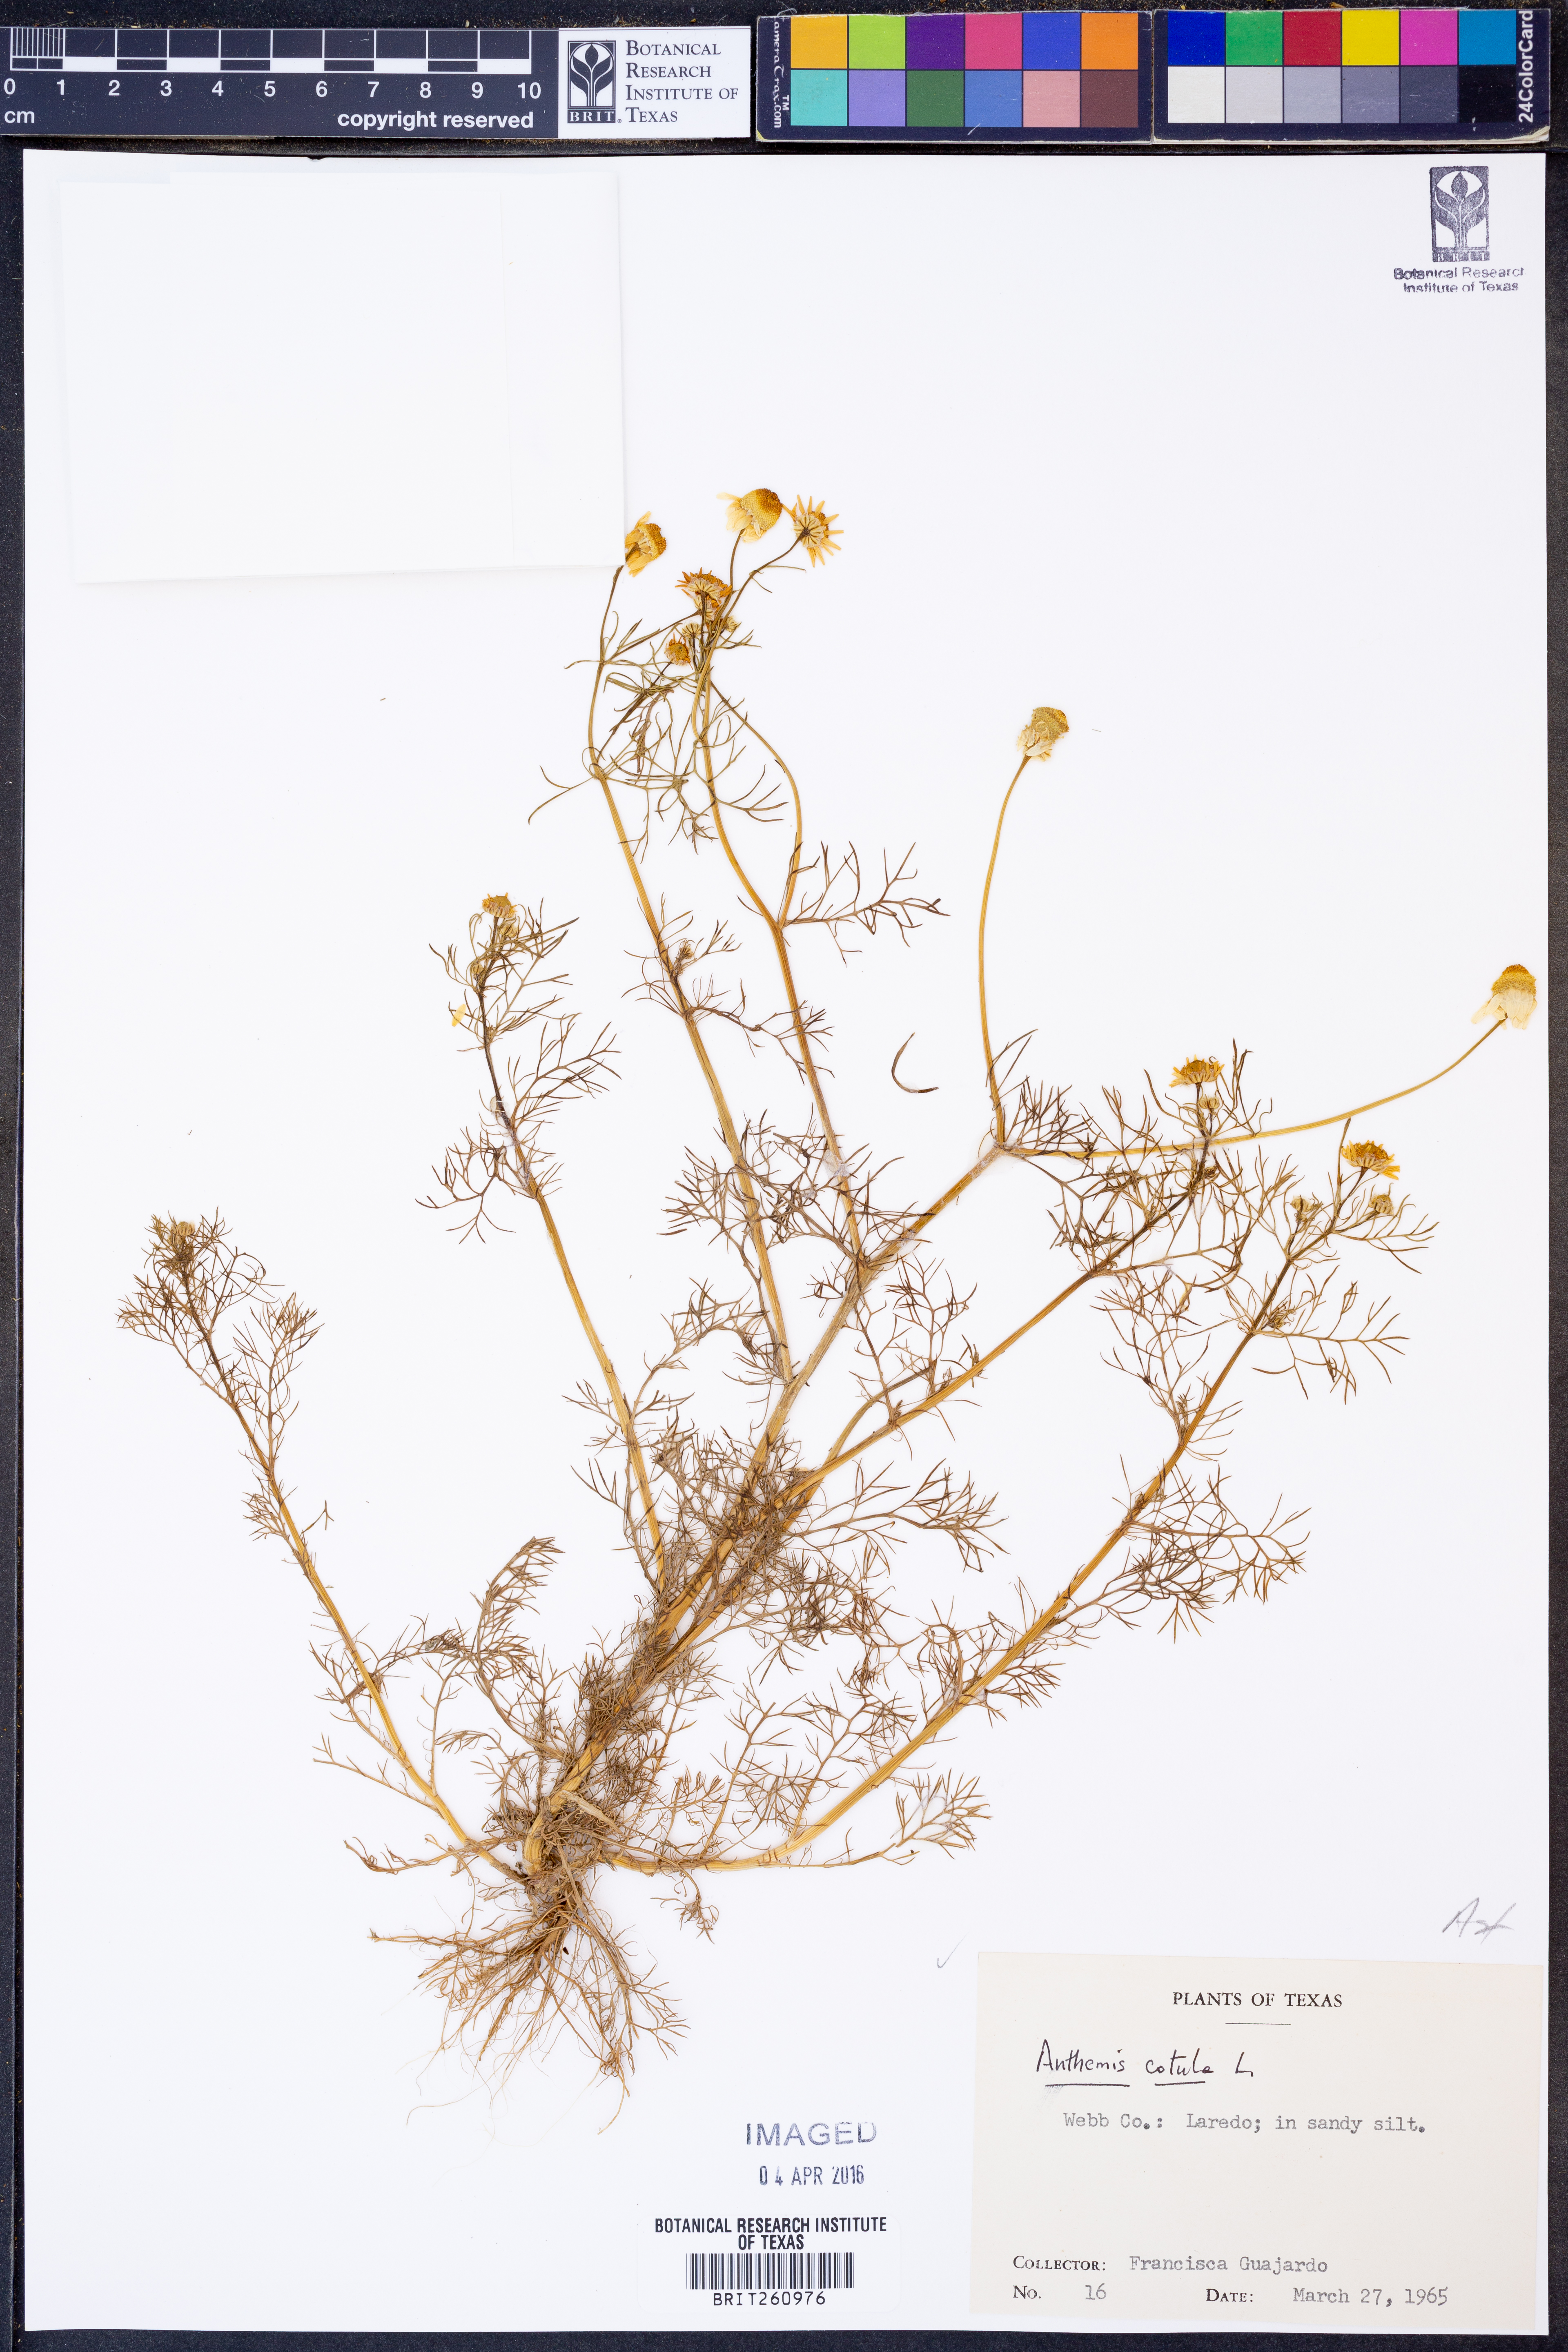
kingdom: Plantae
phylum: Tracheophyta
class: Magnoliopsida
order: Asterales
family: Asteraceae
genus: Anthemis
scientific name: Anthemis cotula
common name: Stinking chamomile
